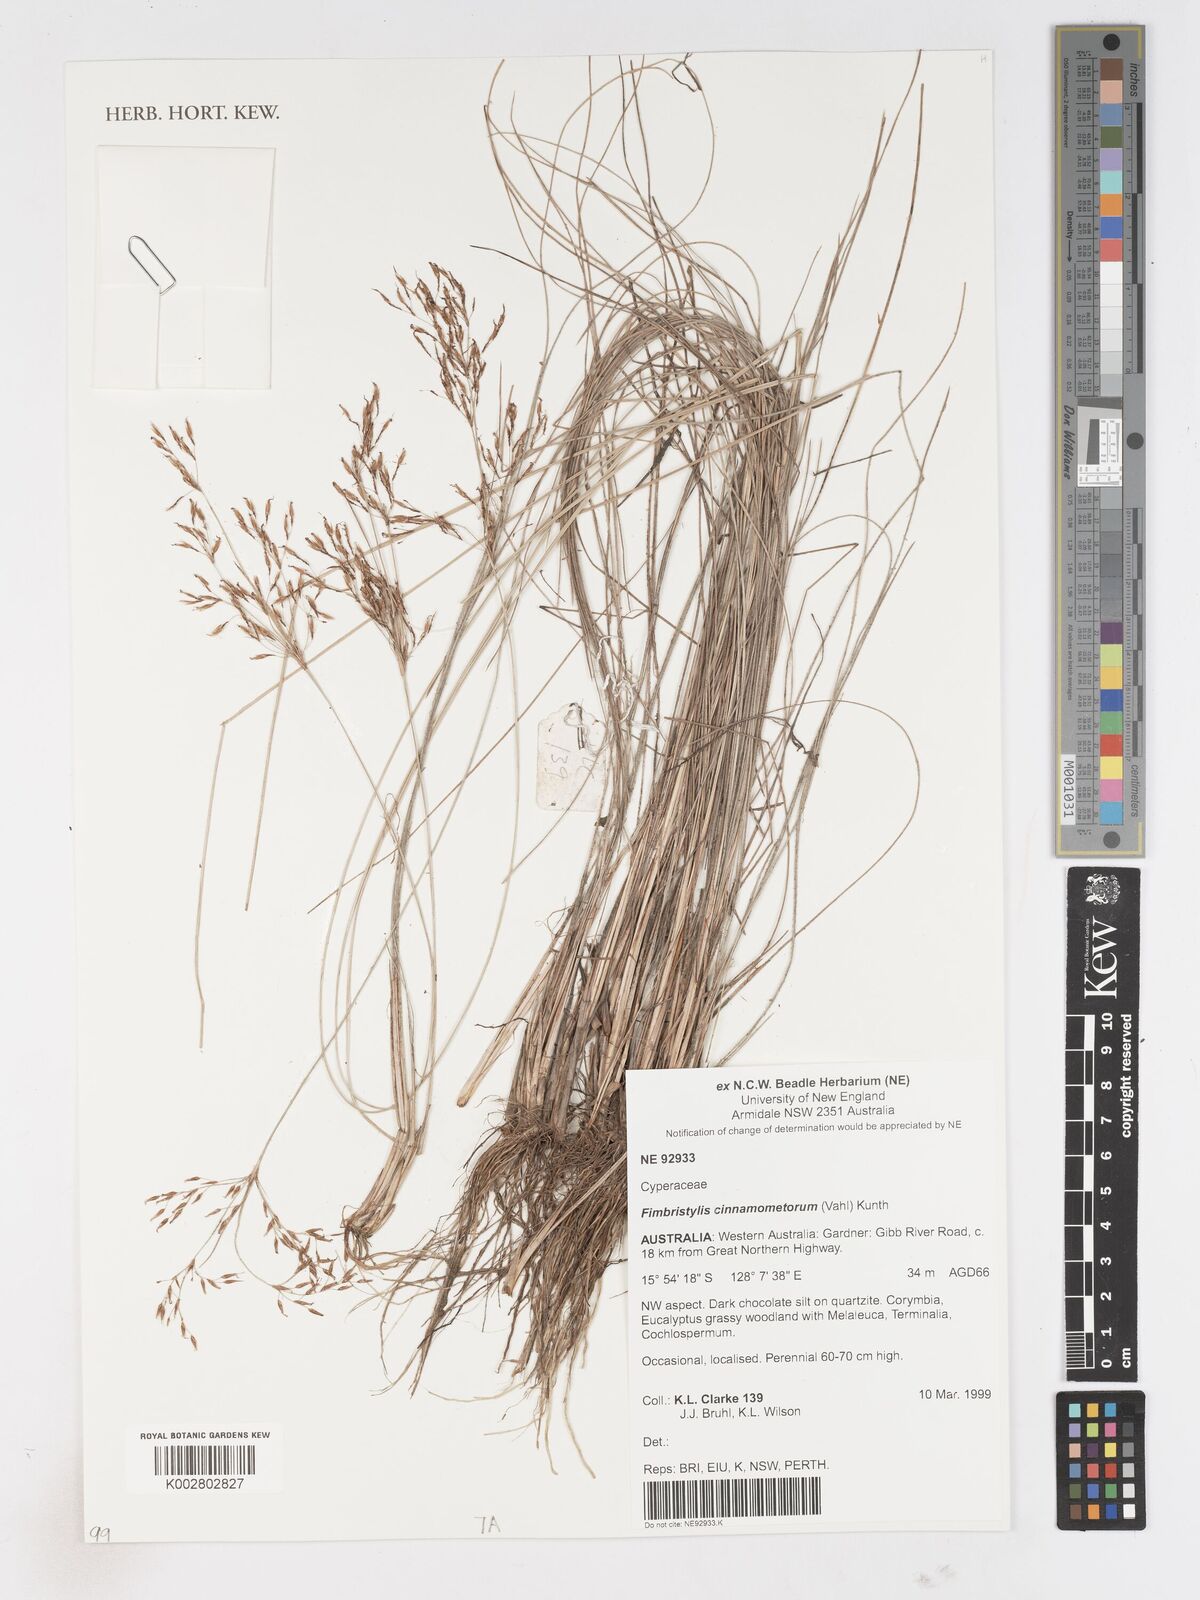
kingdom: Plantae
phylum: Tracheophyta
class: Liliopsida
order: Poales
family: Cyperaceae
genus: Fimbristylis
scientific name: Fimbristylis cinnamometorum
